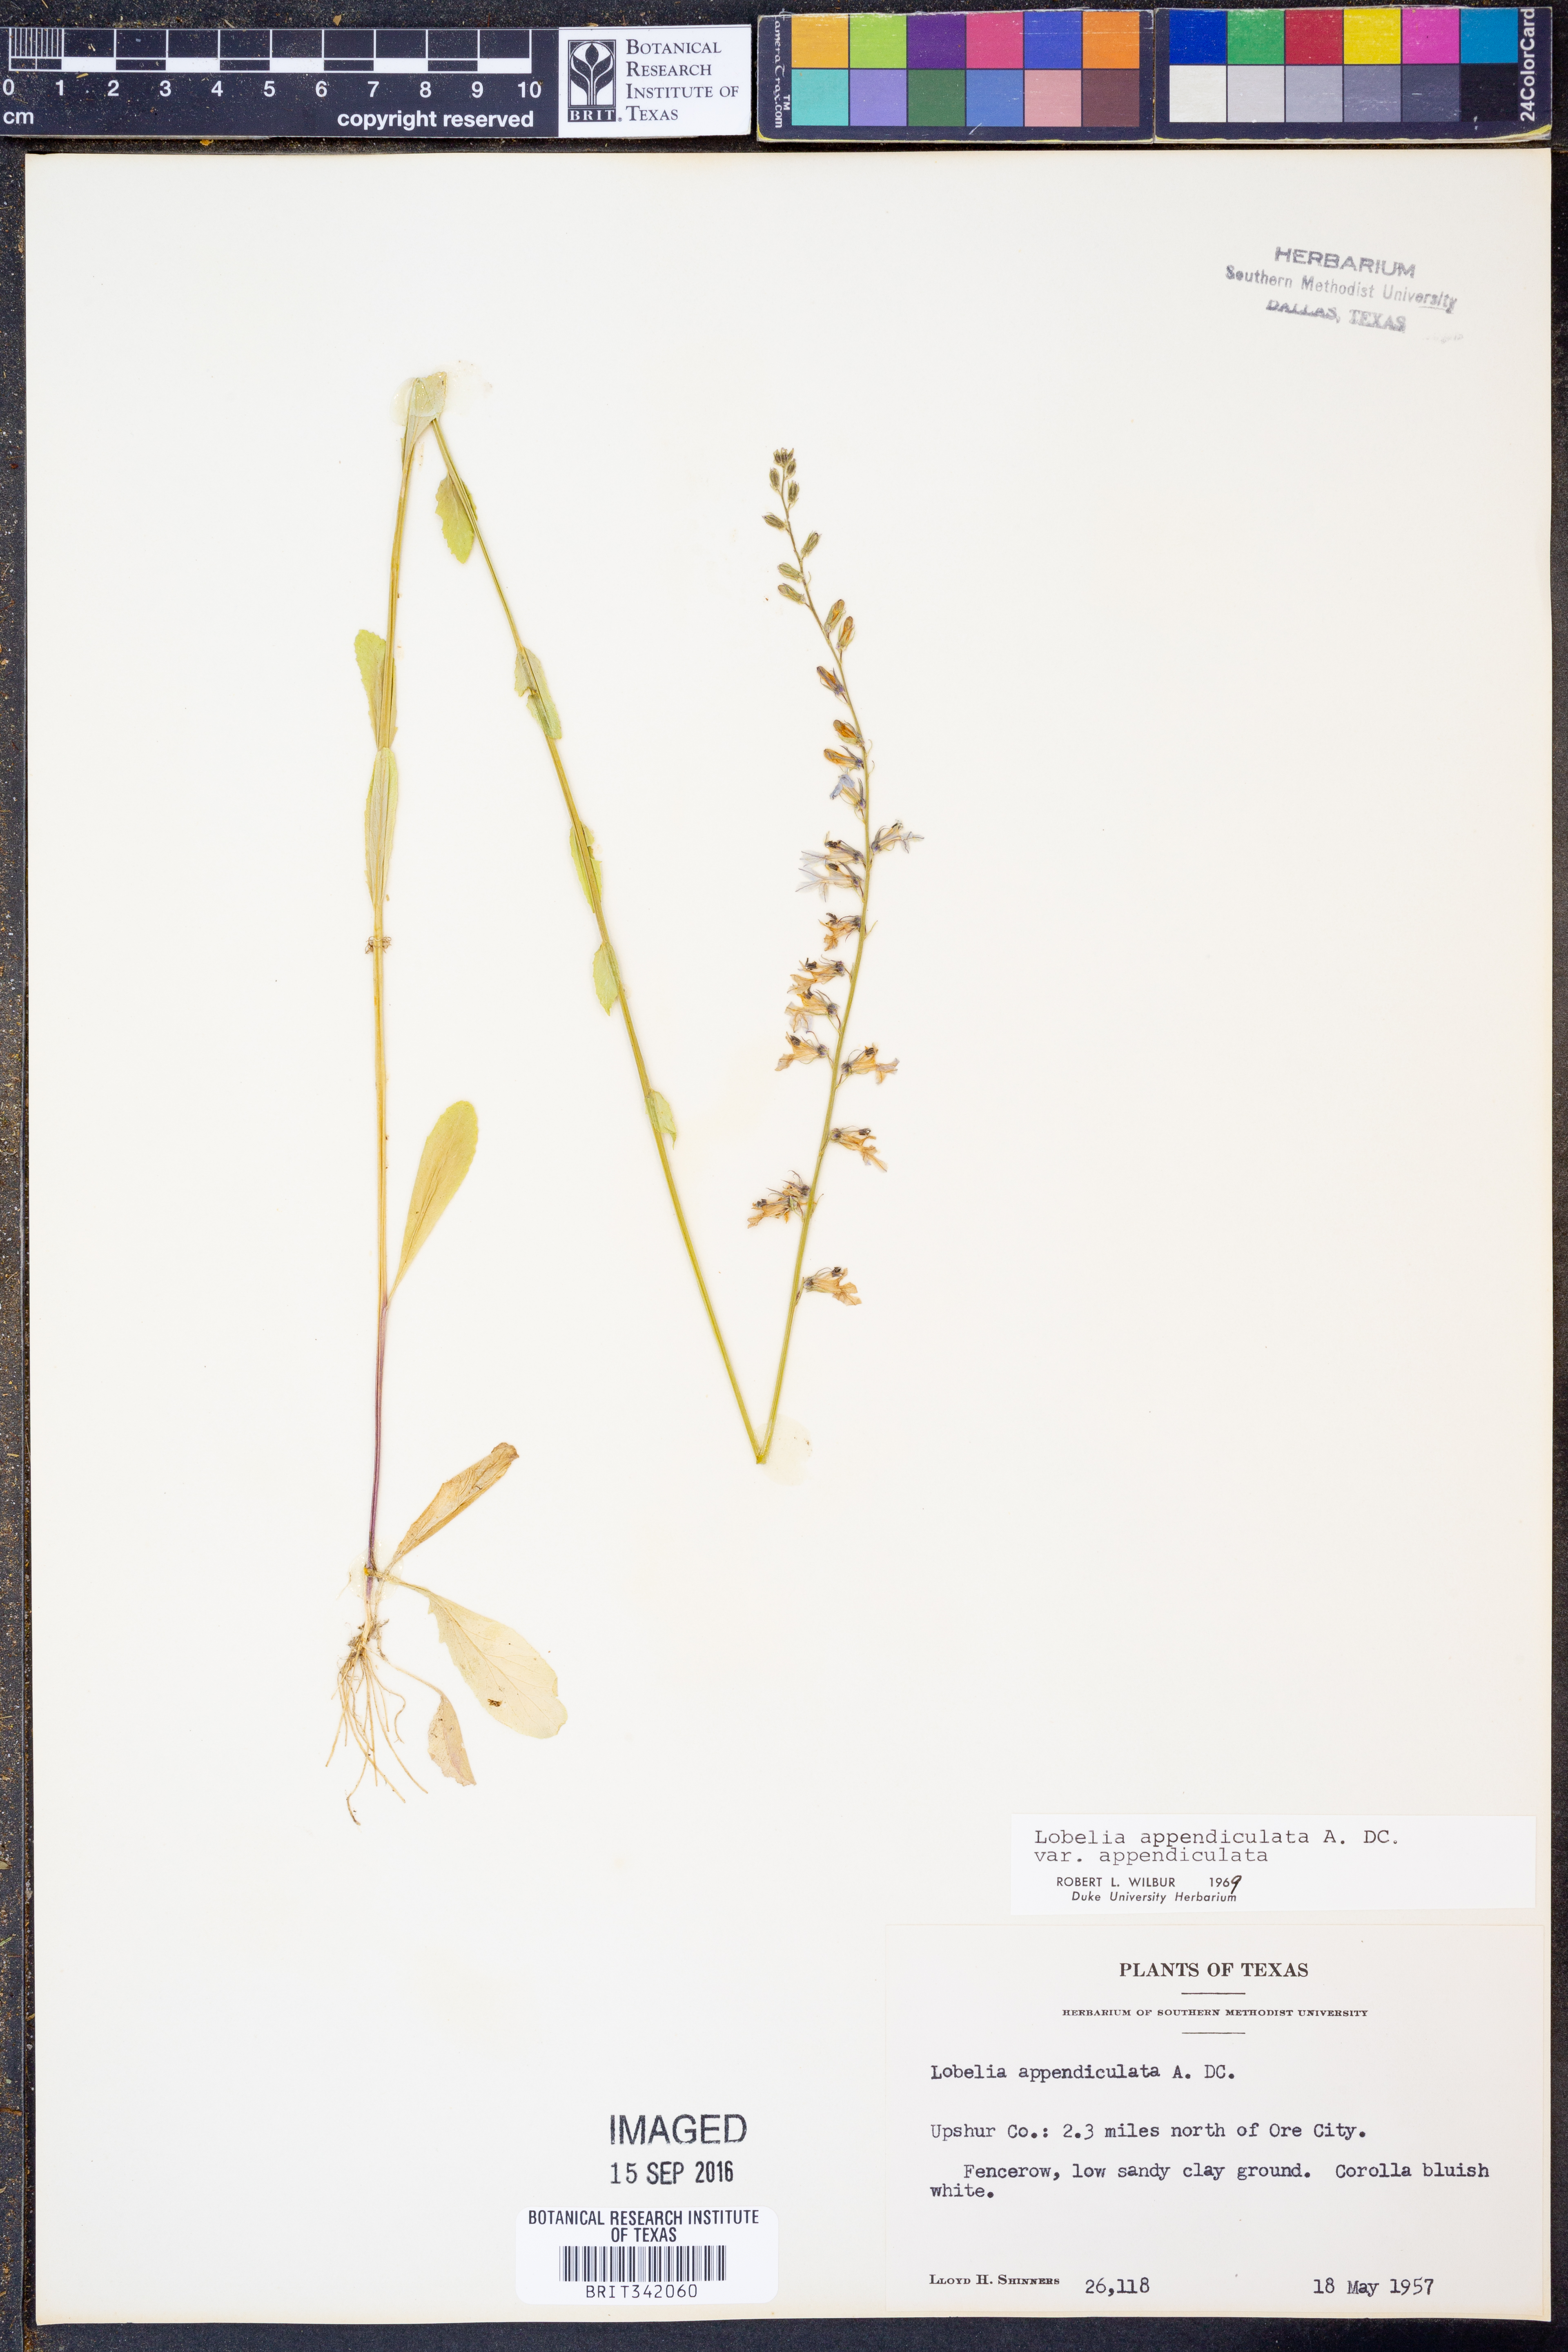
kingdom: Plantae
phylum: Tracheophyta
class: Magnoliopsida
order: Asterales
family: Campanulaceae
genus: Lobelia
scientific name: Lobelia appendiculata
